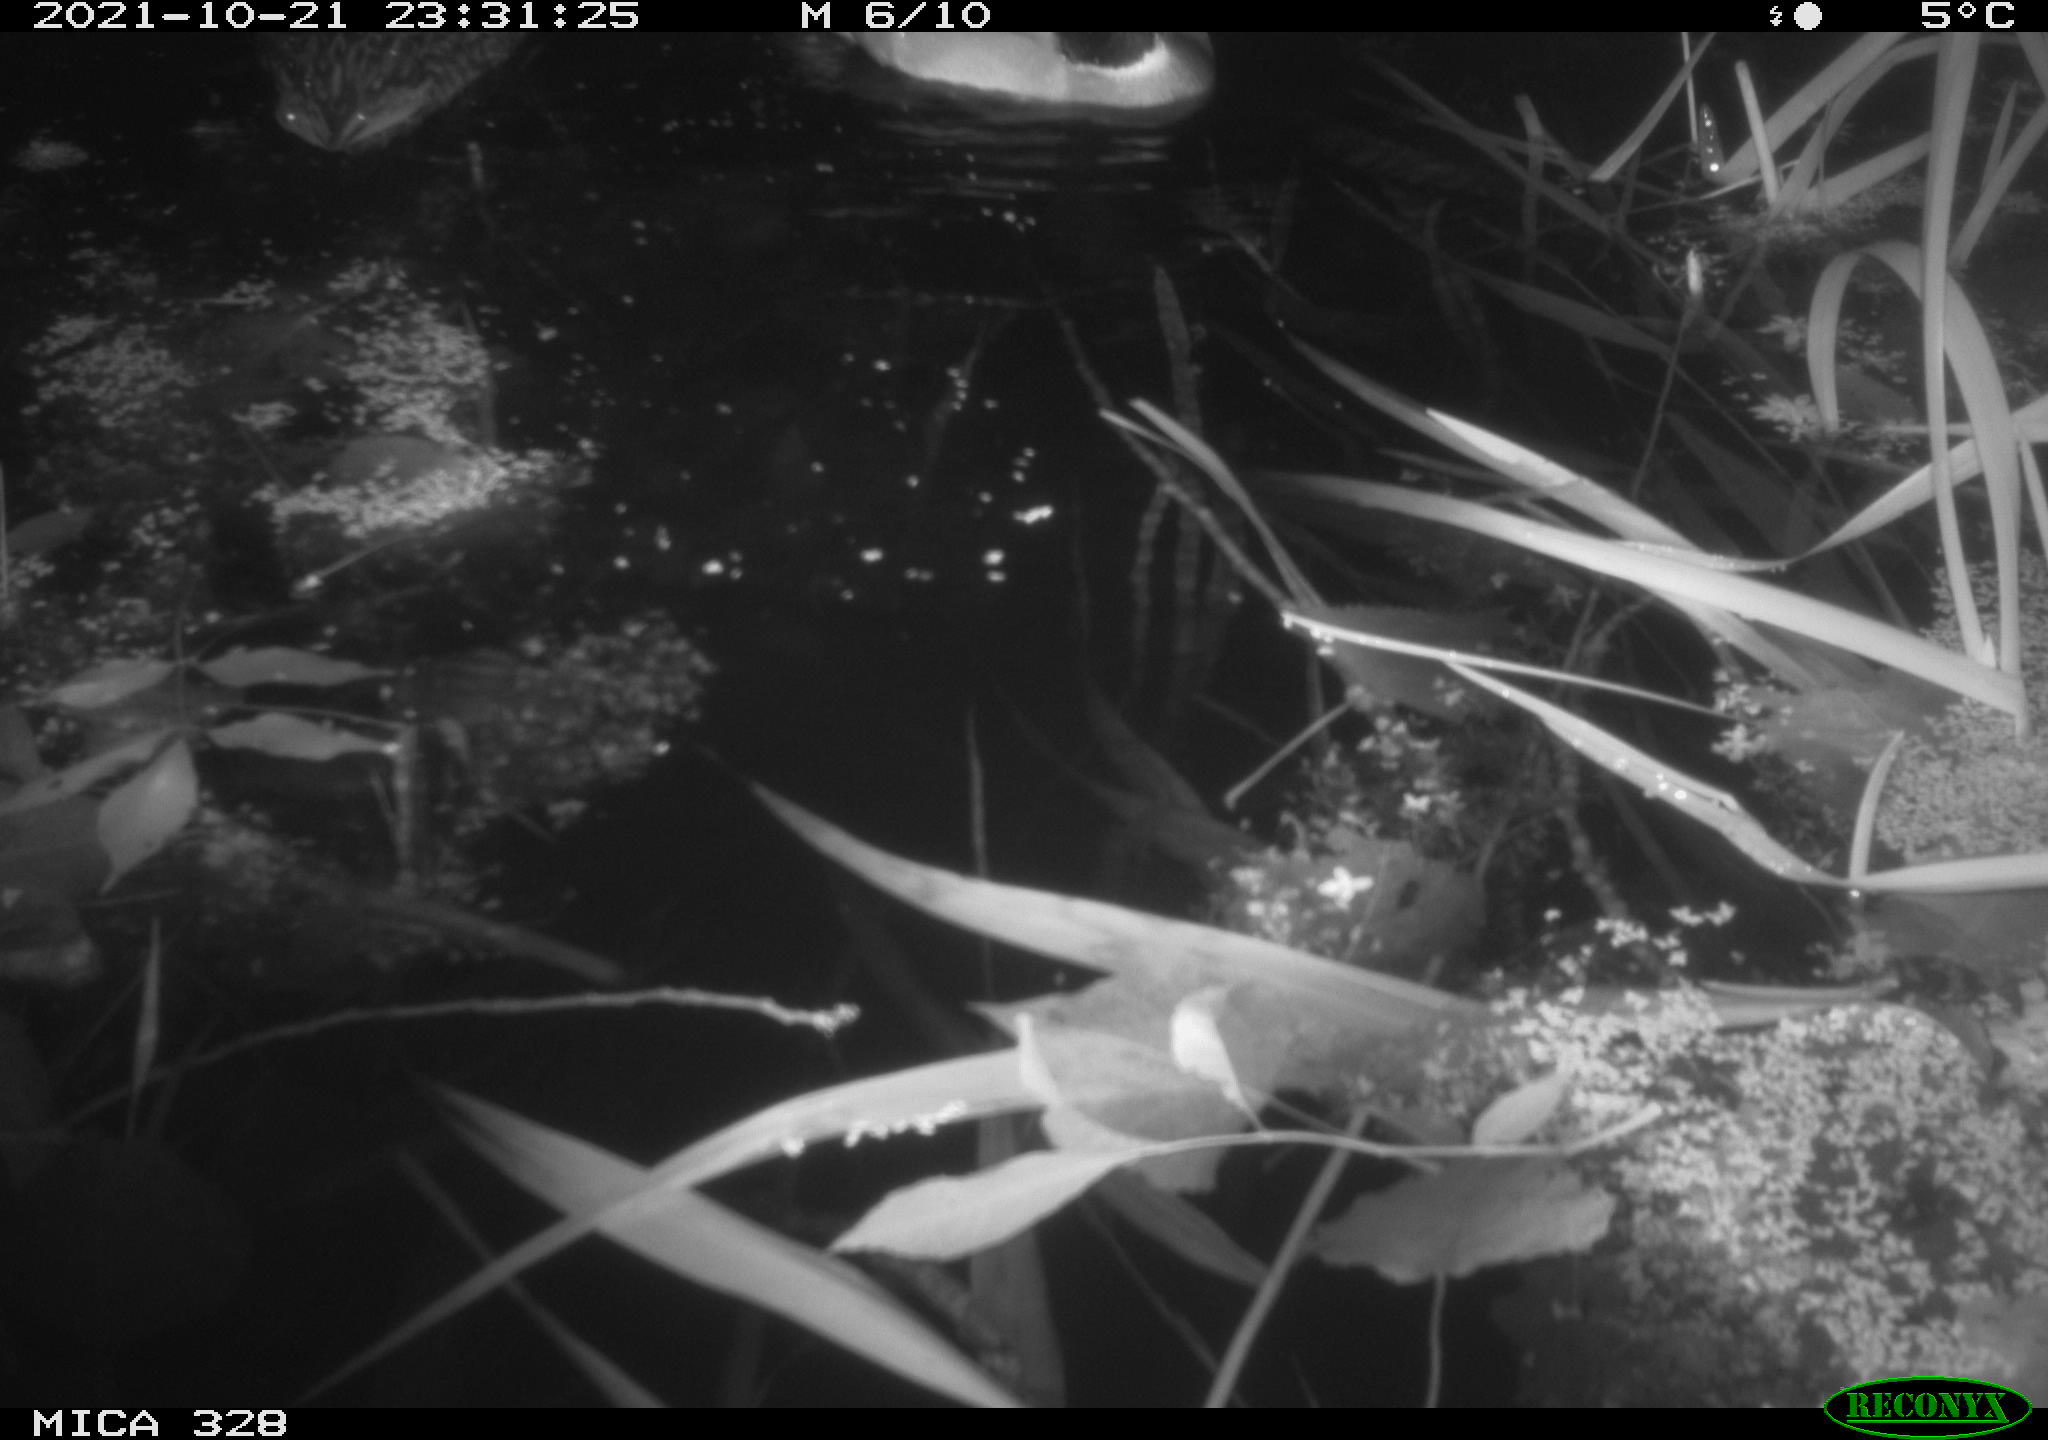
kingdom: Animalia
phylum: Chordata
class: Aves
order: Anseriformes
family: Anatidae
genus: Anas
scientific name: Anas platyrhynchos
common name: Mallard
